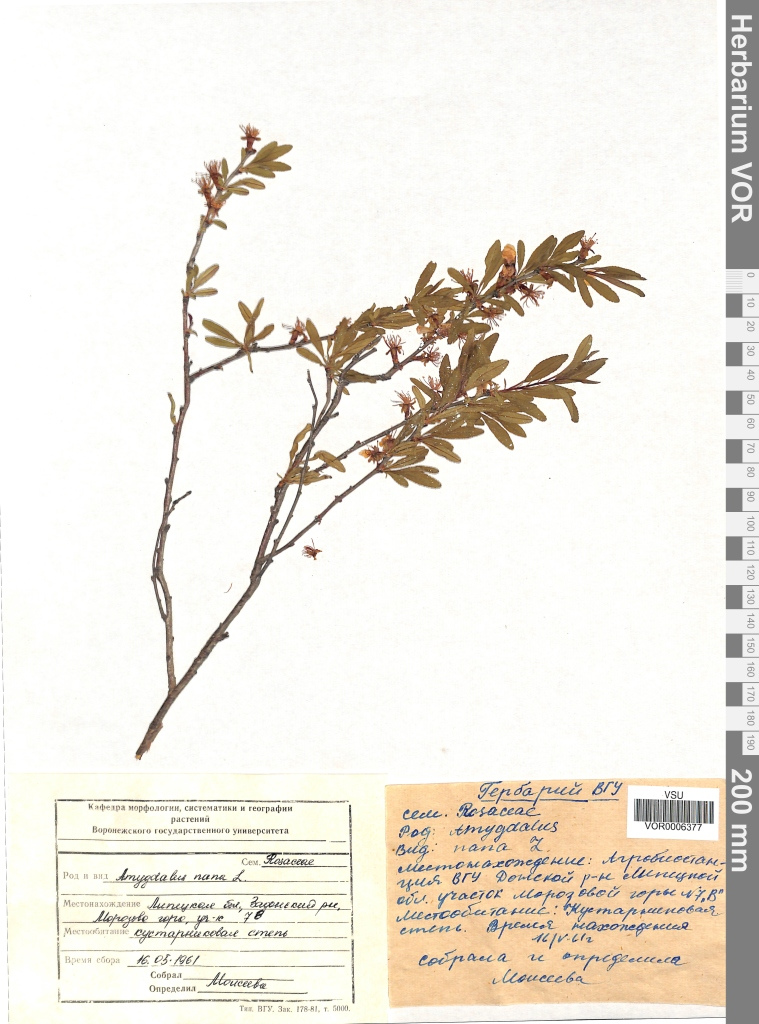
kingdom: Plantae
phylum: Tracheophyta
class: Magnoliopsida
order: Rosales
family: Rosaceae
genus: Prunus
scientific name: Prunus tenella
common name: Dwarf russian almond
